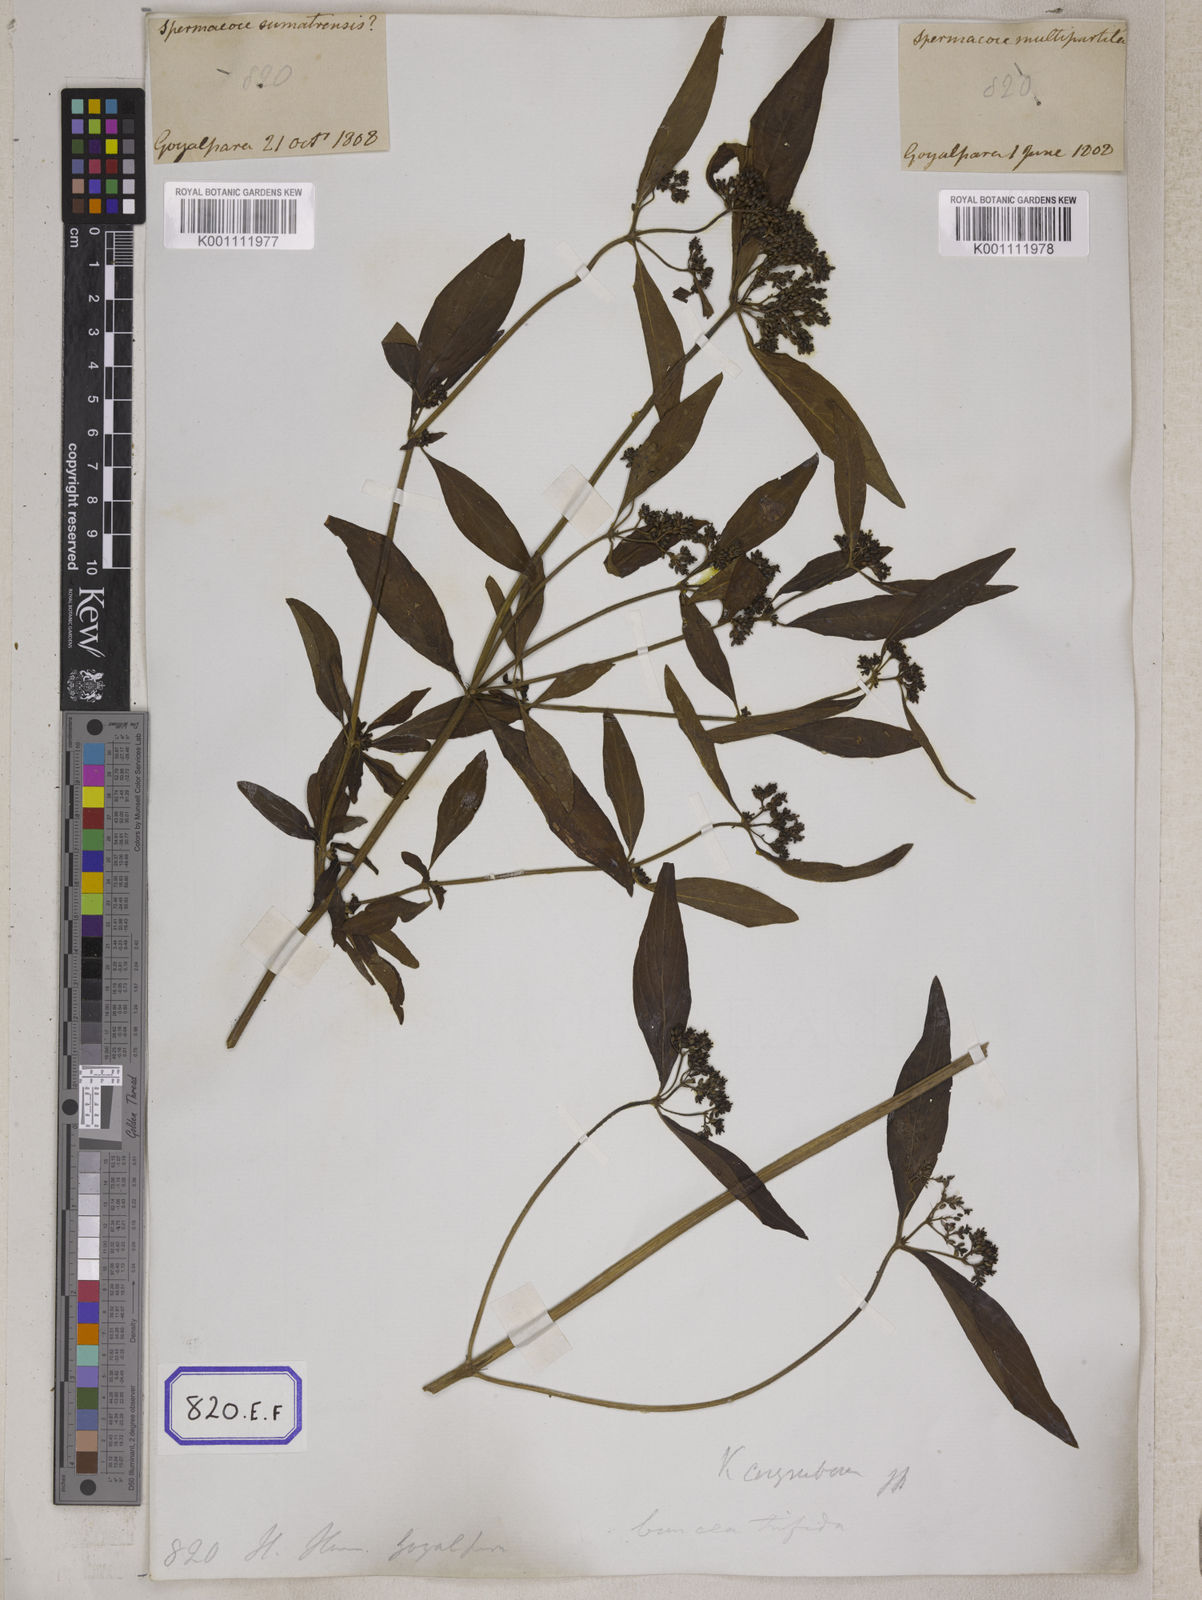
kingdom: Plantae
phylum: Tracheophyta
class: Magnoliopsida
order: Gentianales
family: Rubiaceae
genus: Knoxia
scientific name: Knoxia
